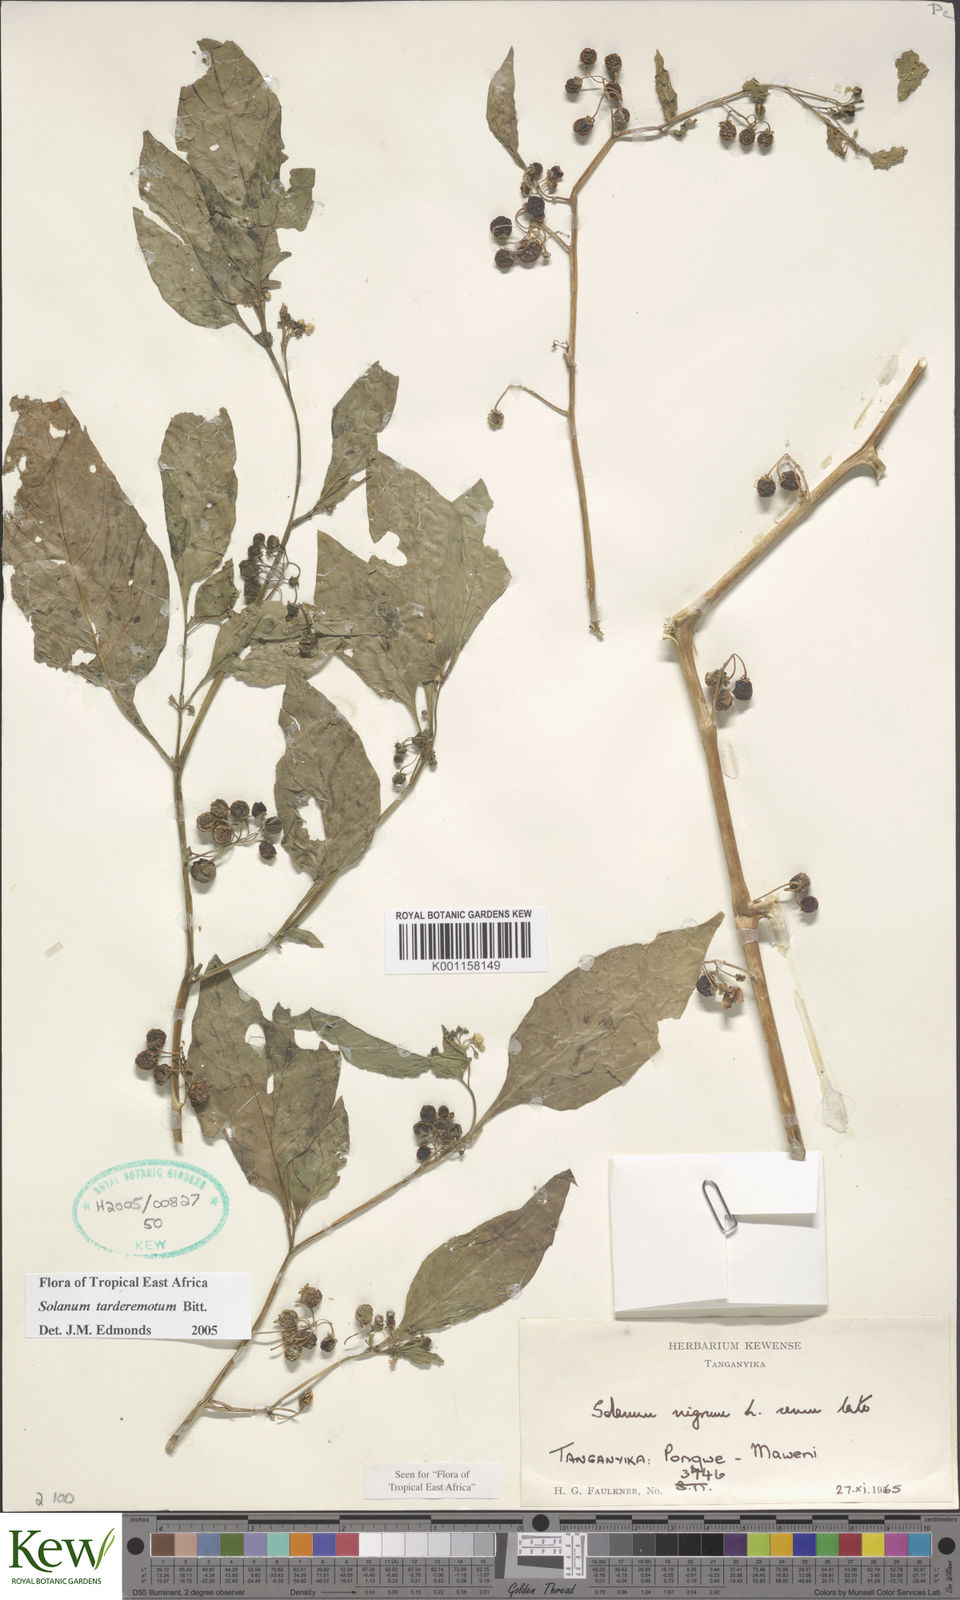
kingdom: Plantae
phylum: Tracheophyta
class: Magnoliopsida
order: Solanales
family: Solanaceae
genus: Solanum
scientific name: Solanum tarderemotum
